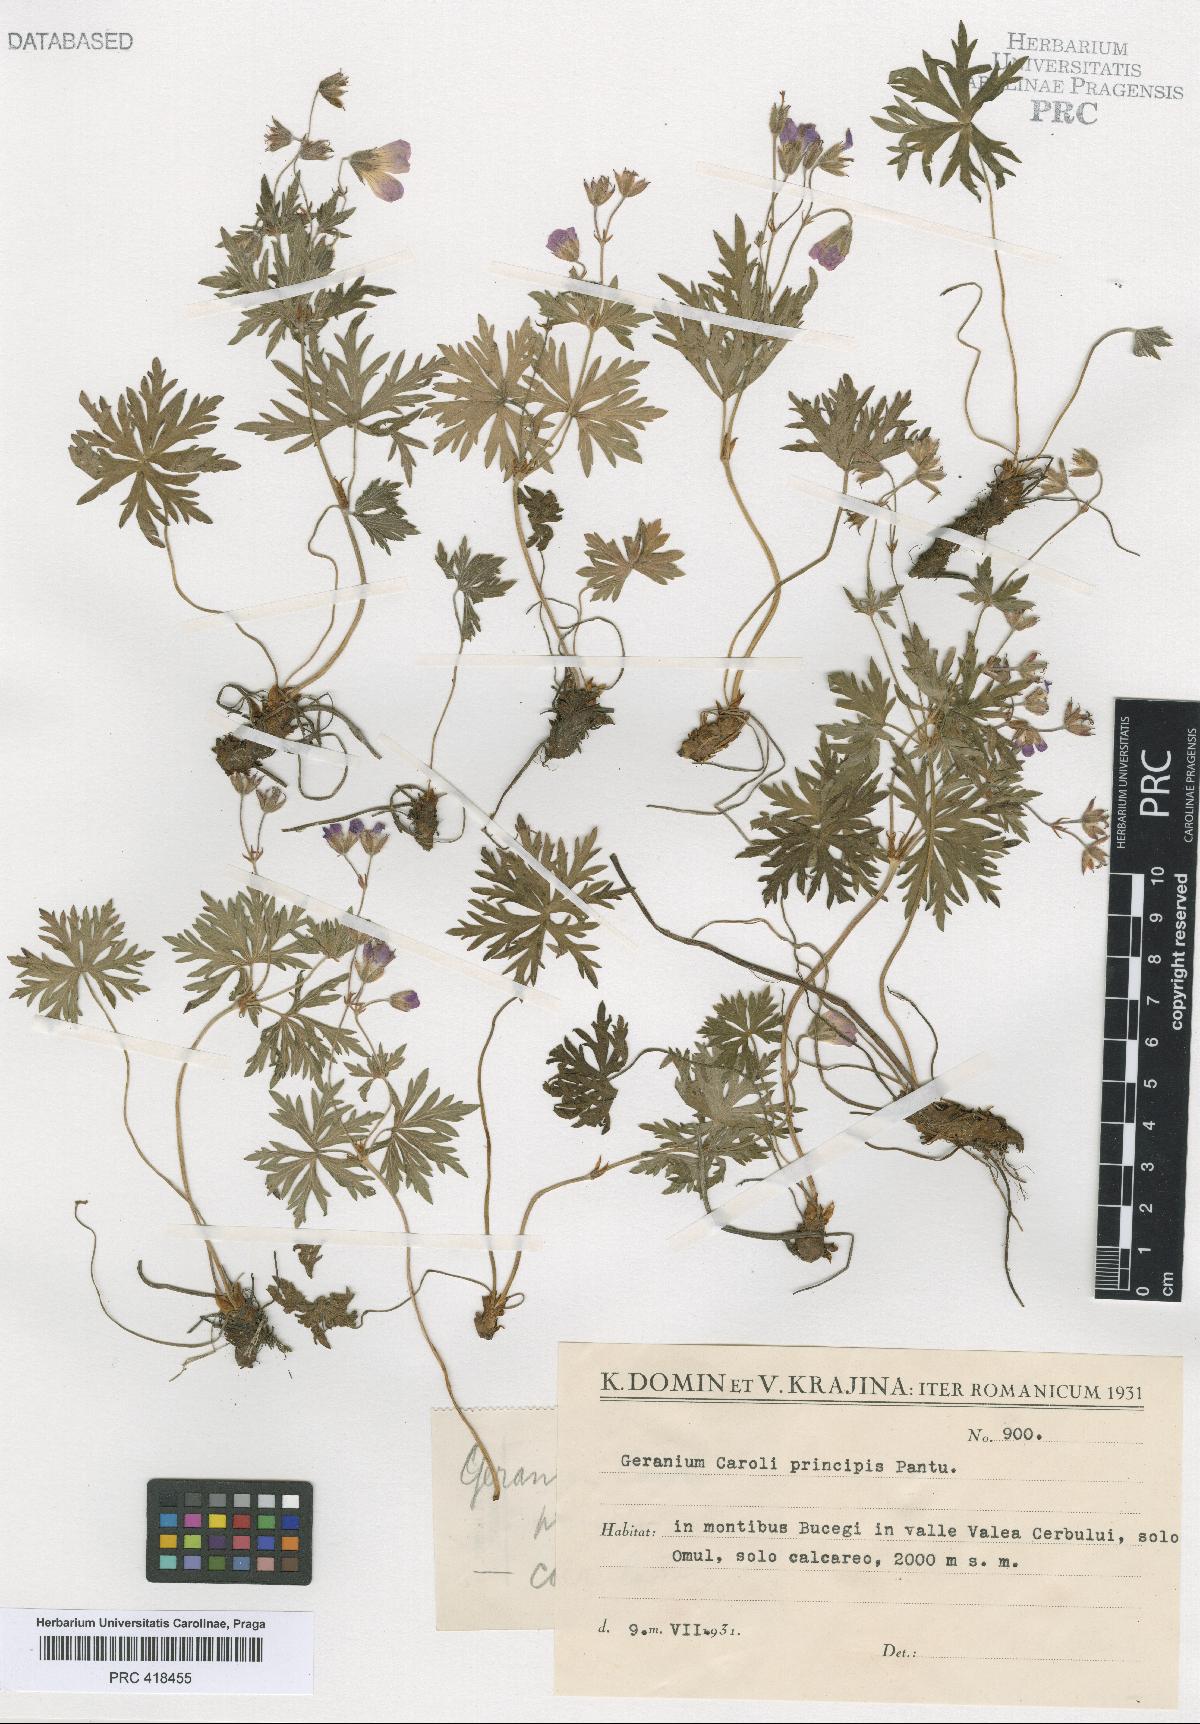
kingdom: Plantae
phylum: Tracheophyta
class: Magnoliopsida
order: Geraniales
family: Geraniaceae
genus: Geranium
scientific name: Geranium caeruleatum
